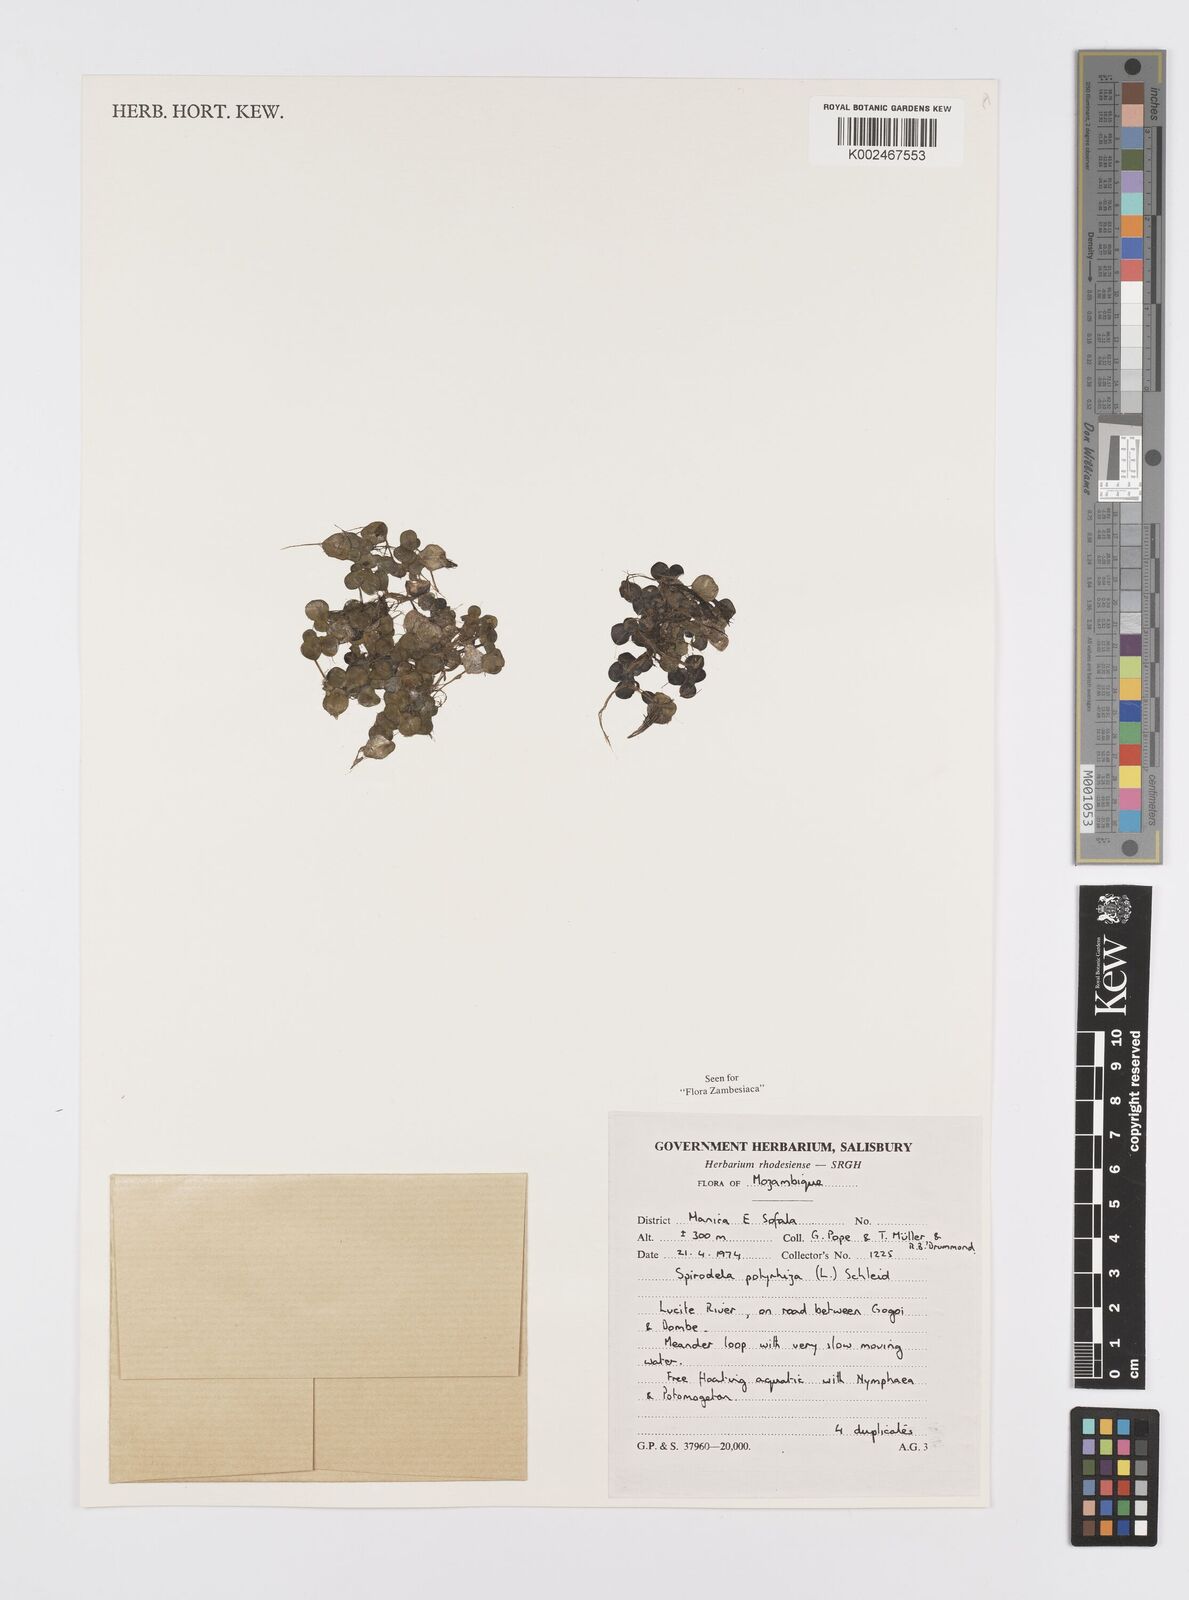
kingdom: Plantae
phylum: Tracheophyta
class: Liliopsida
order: Alismatales
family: Araceae
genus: Spirodela
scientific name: Spirodela polyrhiza
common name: Great duckweed
